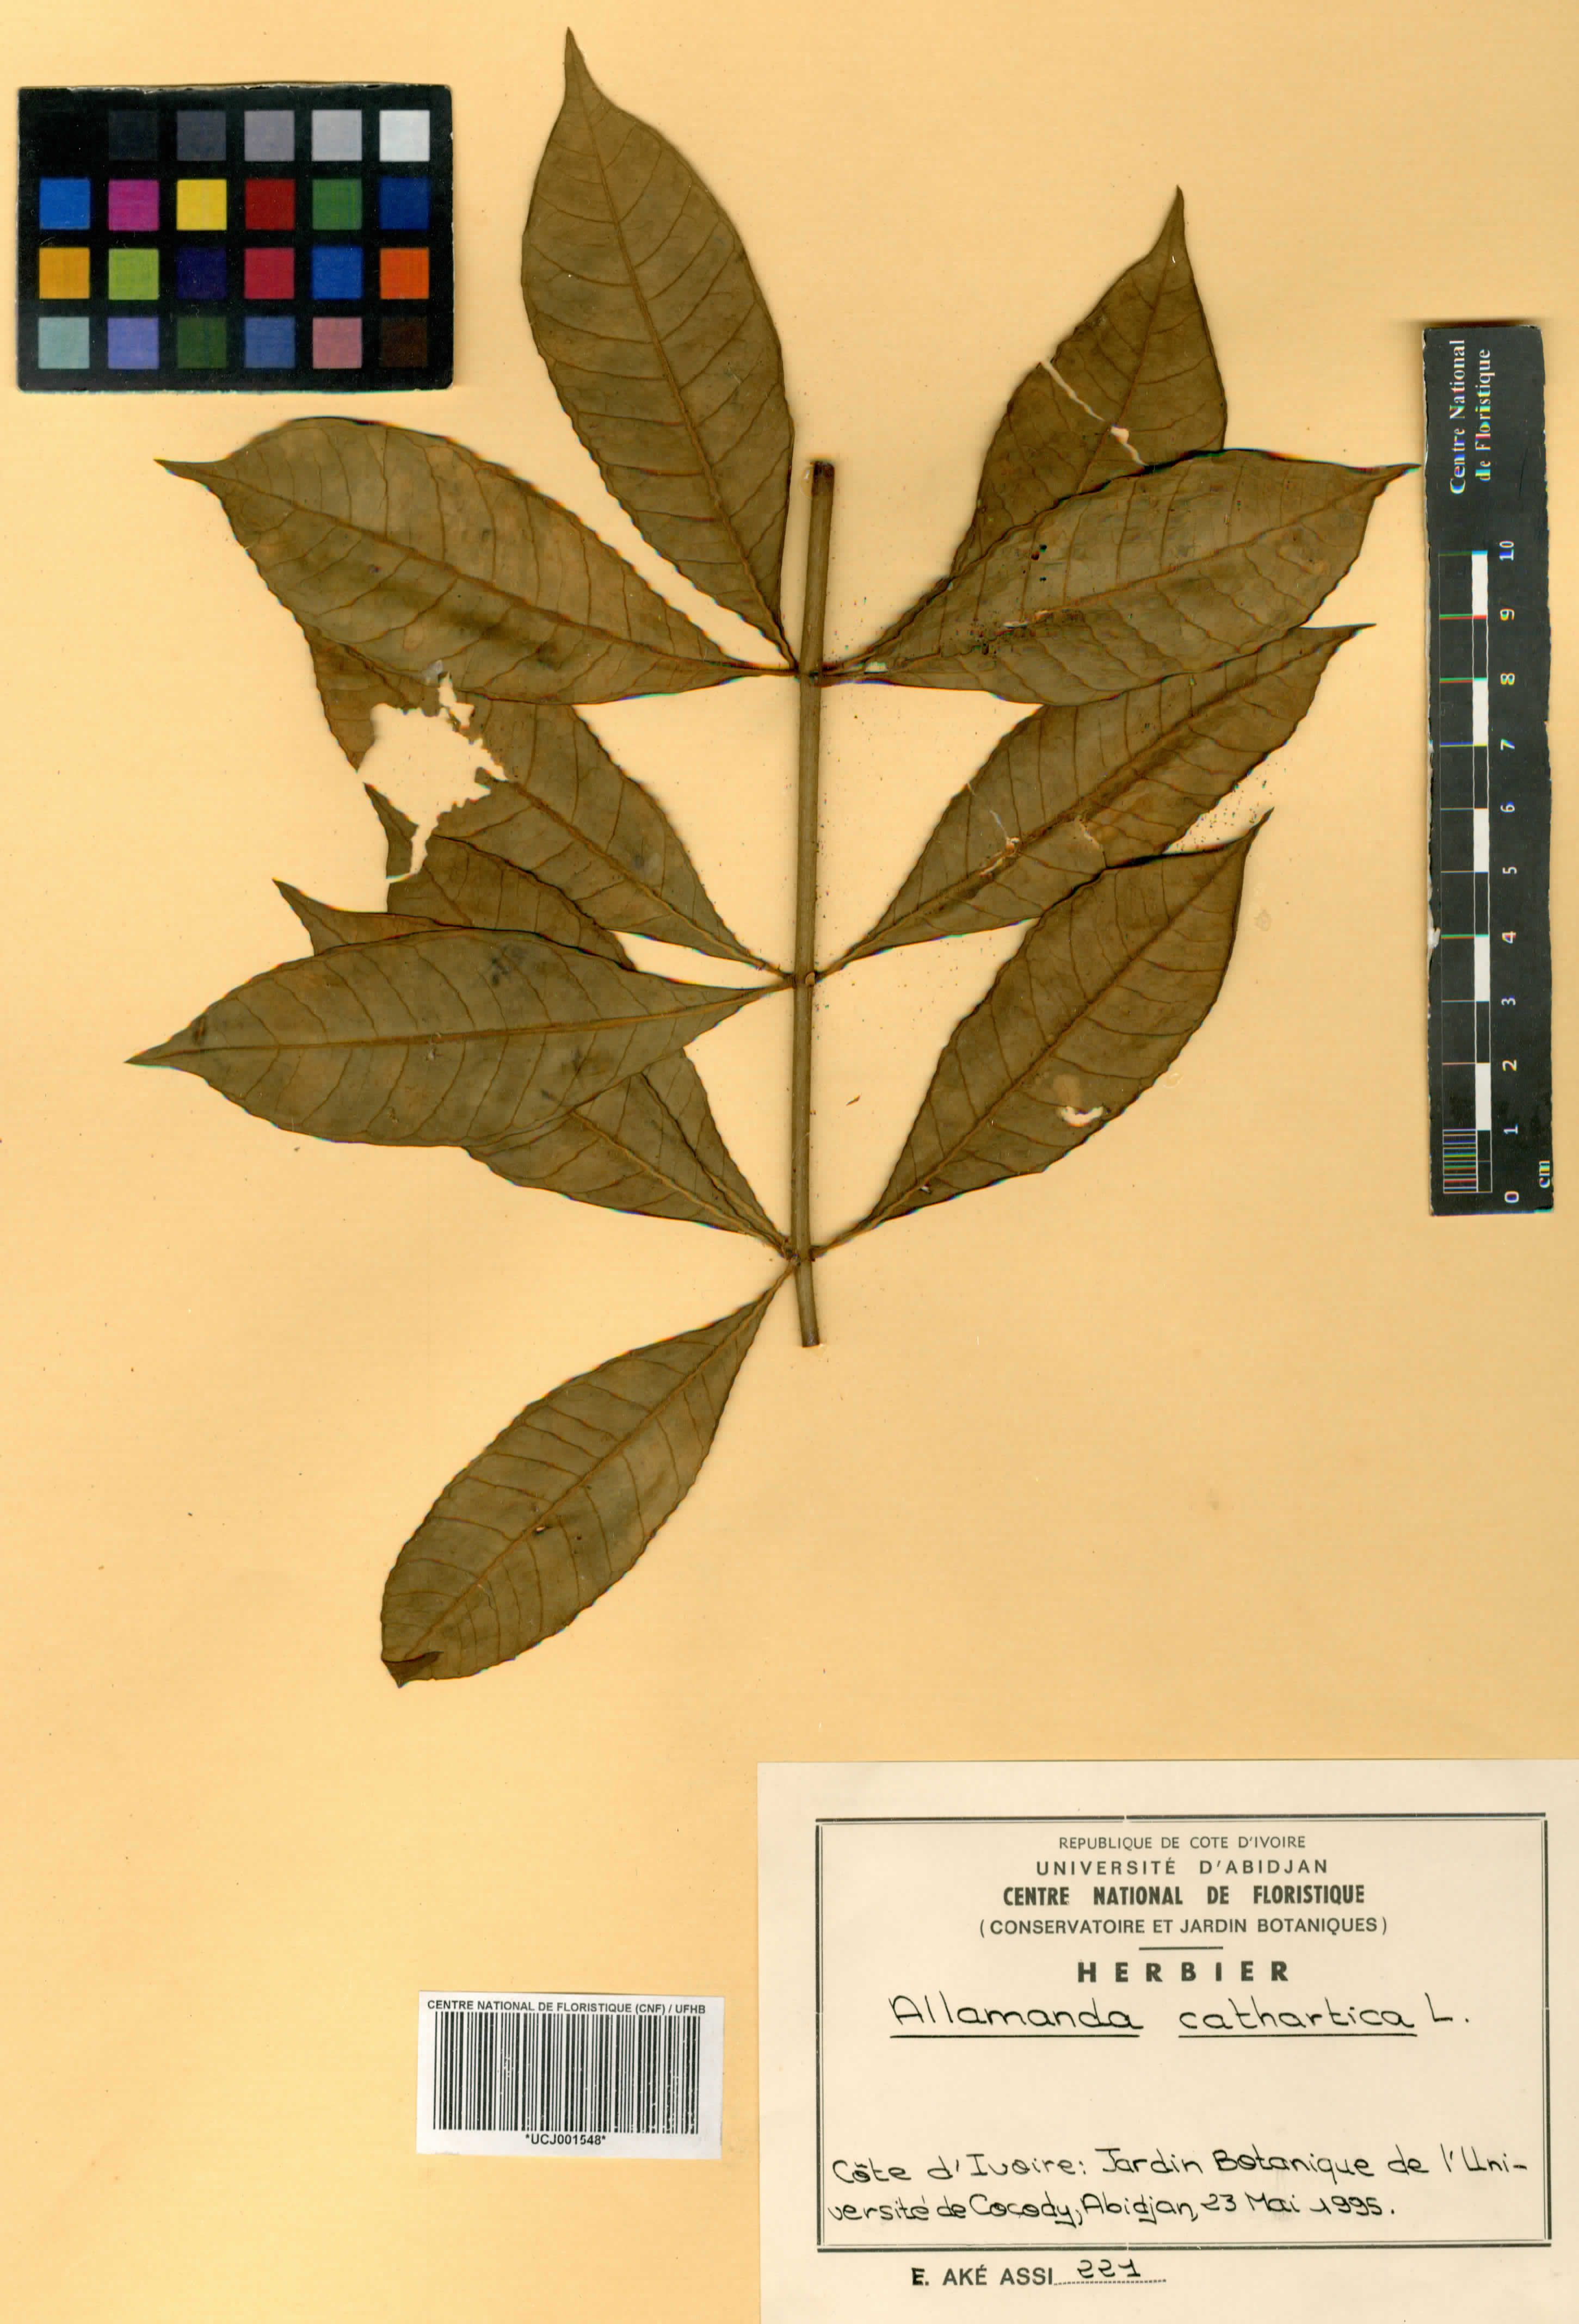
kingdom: Plantae
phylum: Tracheophyta
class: Magnoliopsida
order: Gentianales
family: Apocynaceae
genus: Allamanda
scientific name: Allamanda cathartica
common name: Golden trumpet
